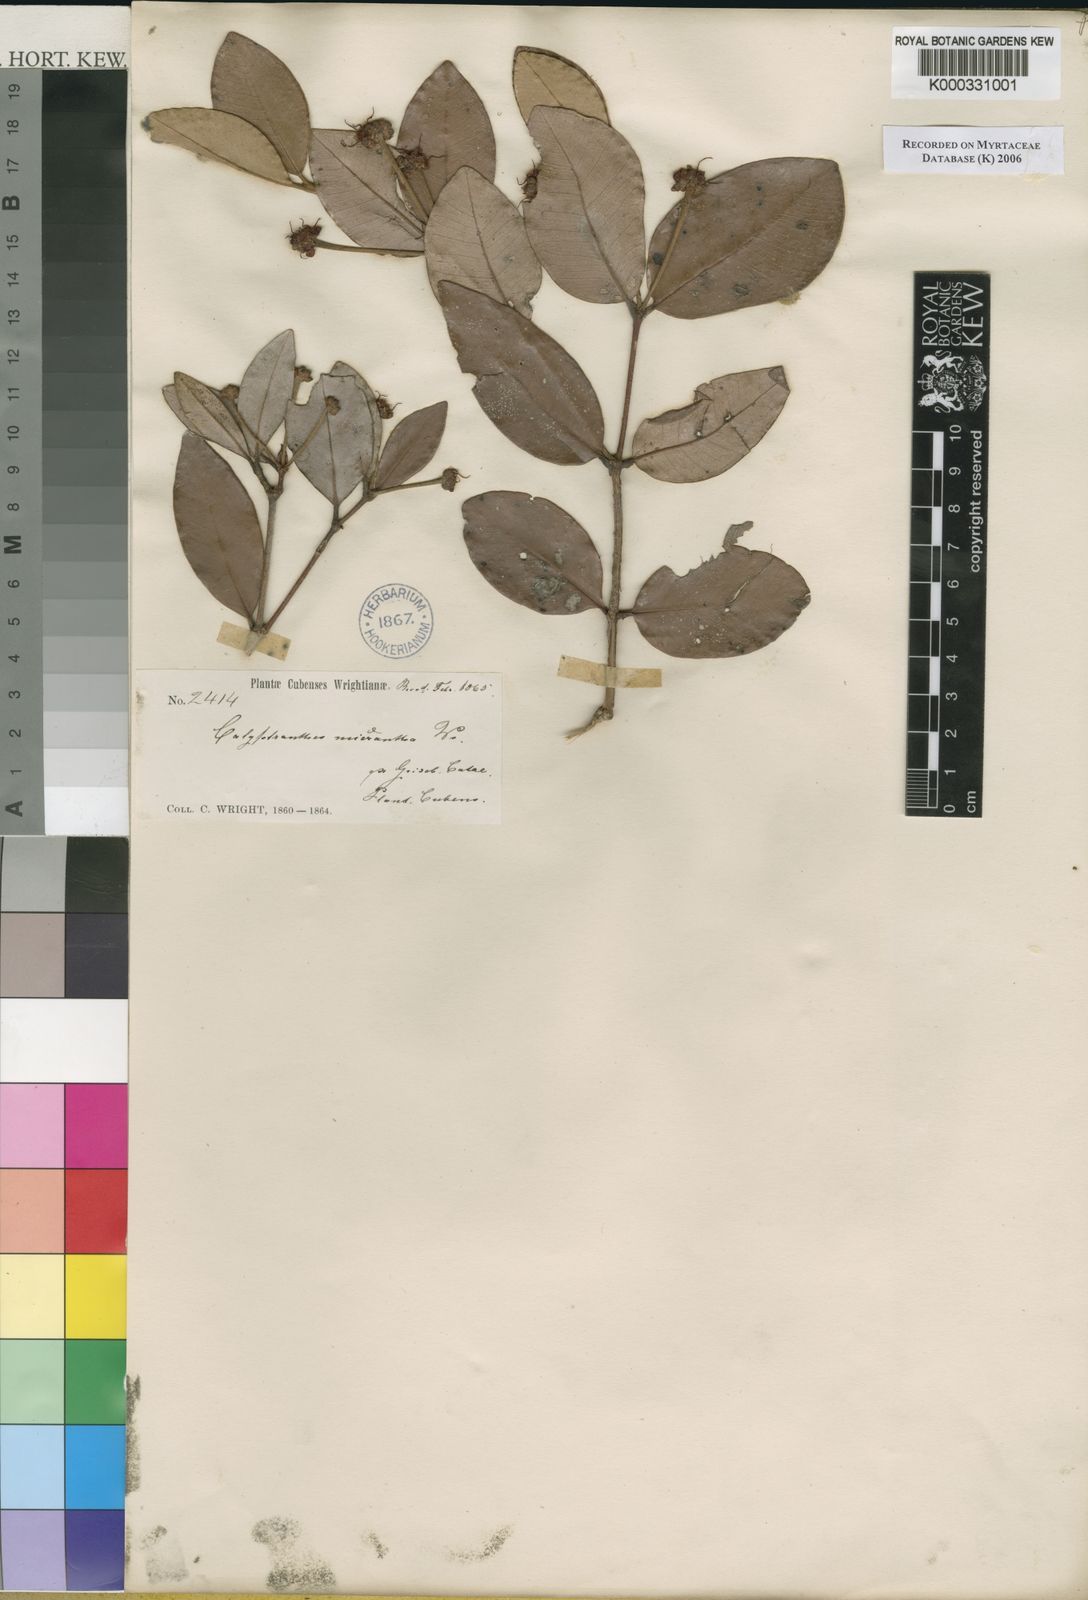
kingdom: Plantae
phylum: Tracheophyta
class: Magnoliopsida
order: Myrtales
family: Myrtaceae
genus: Myrcia
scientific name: Myrcia parviantha
